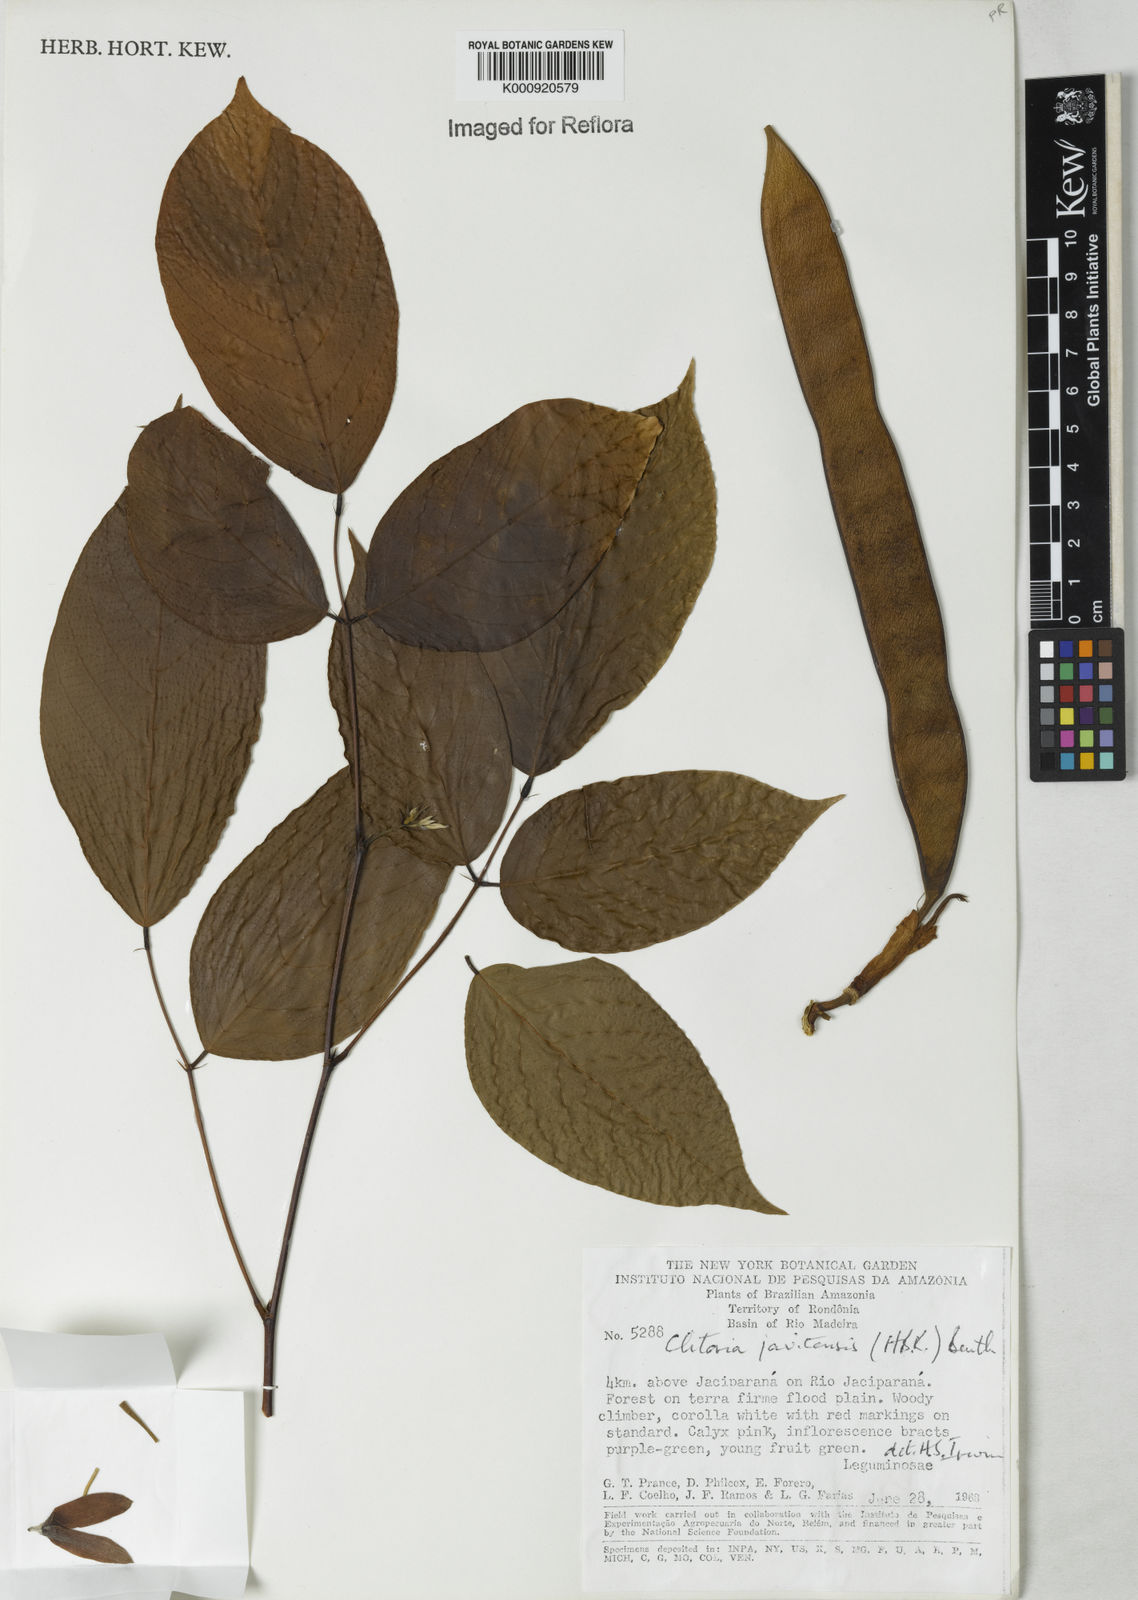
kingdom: Plantae
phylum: Tracheophyta
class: Magnoliopsida
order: Fabales
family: Fabaceae
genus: Clitoria
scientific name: Clitoria javitensis
